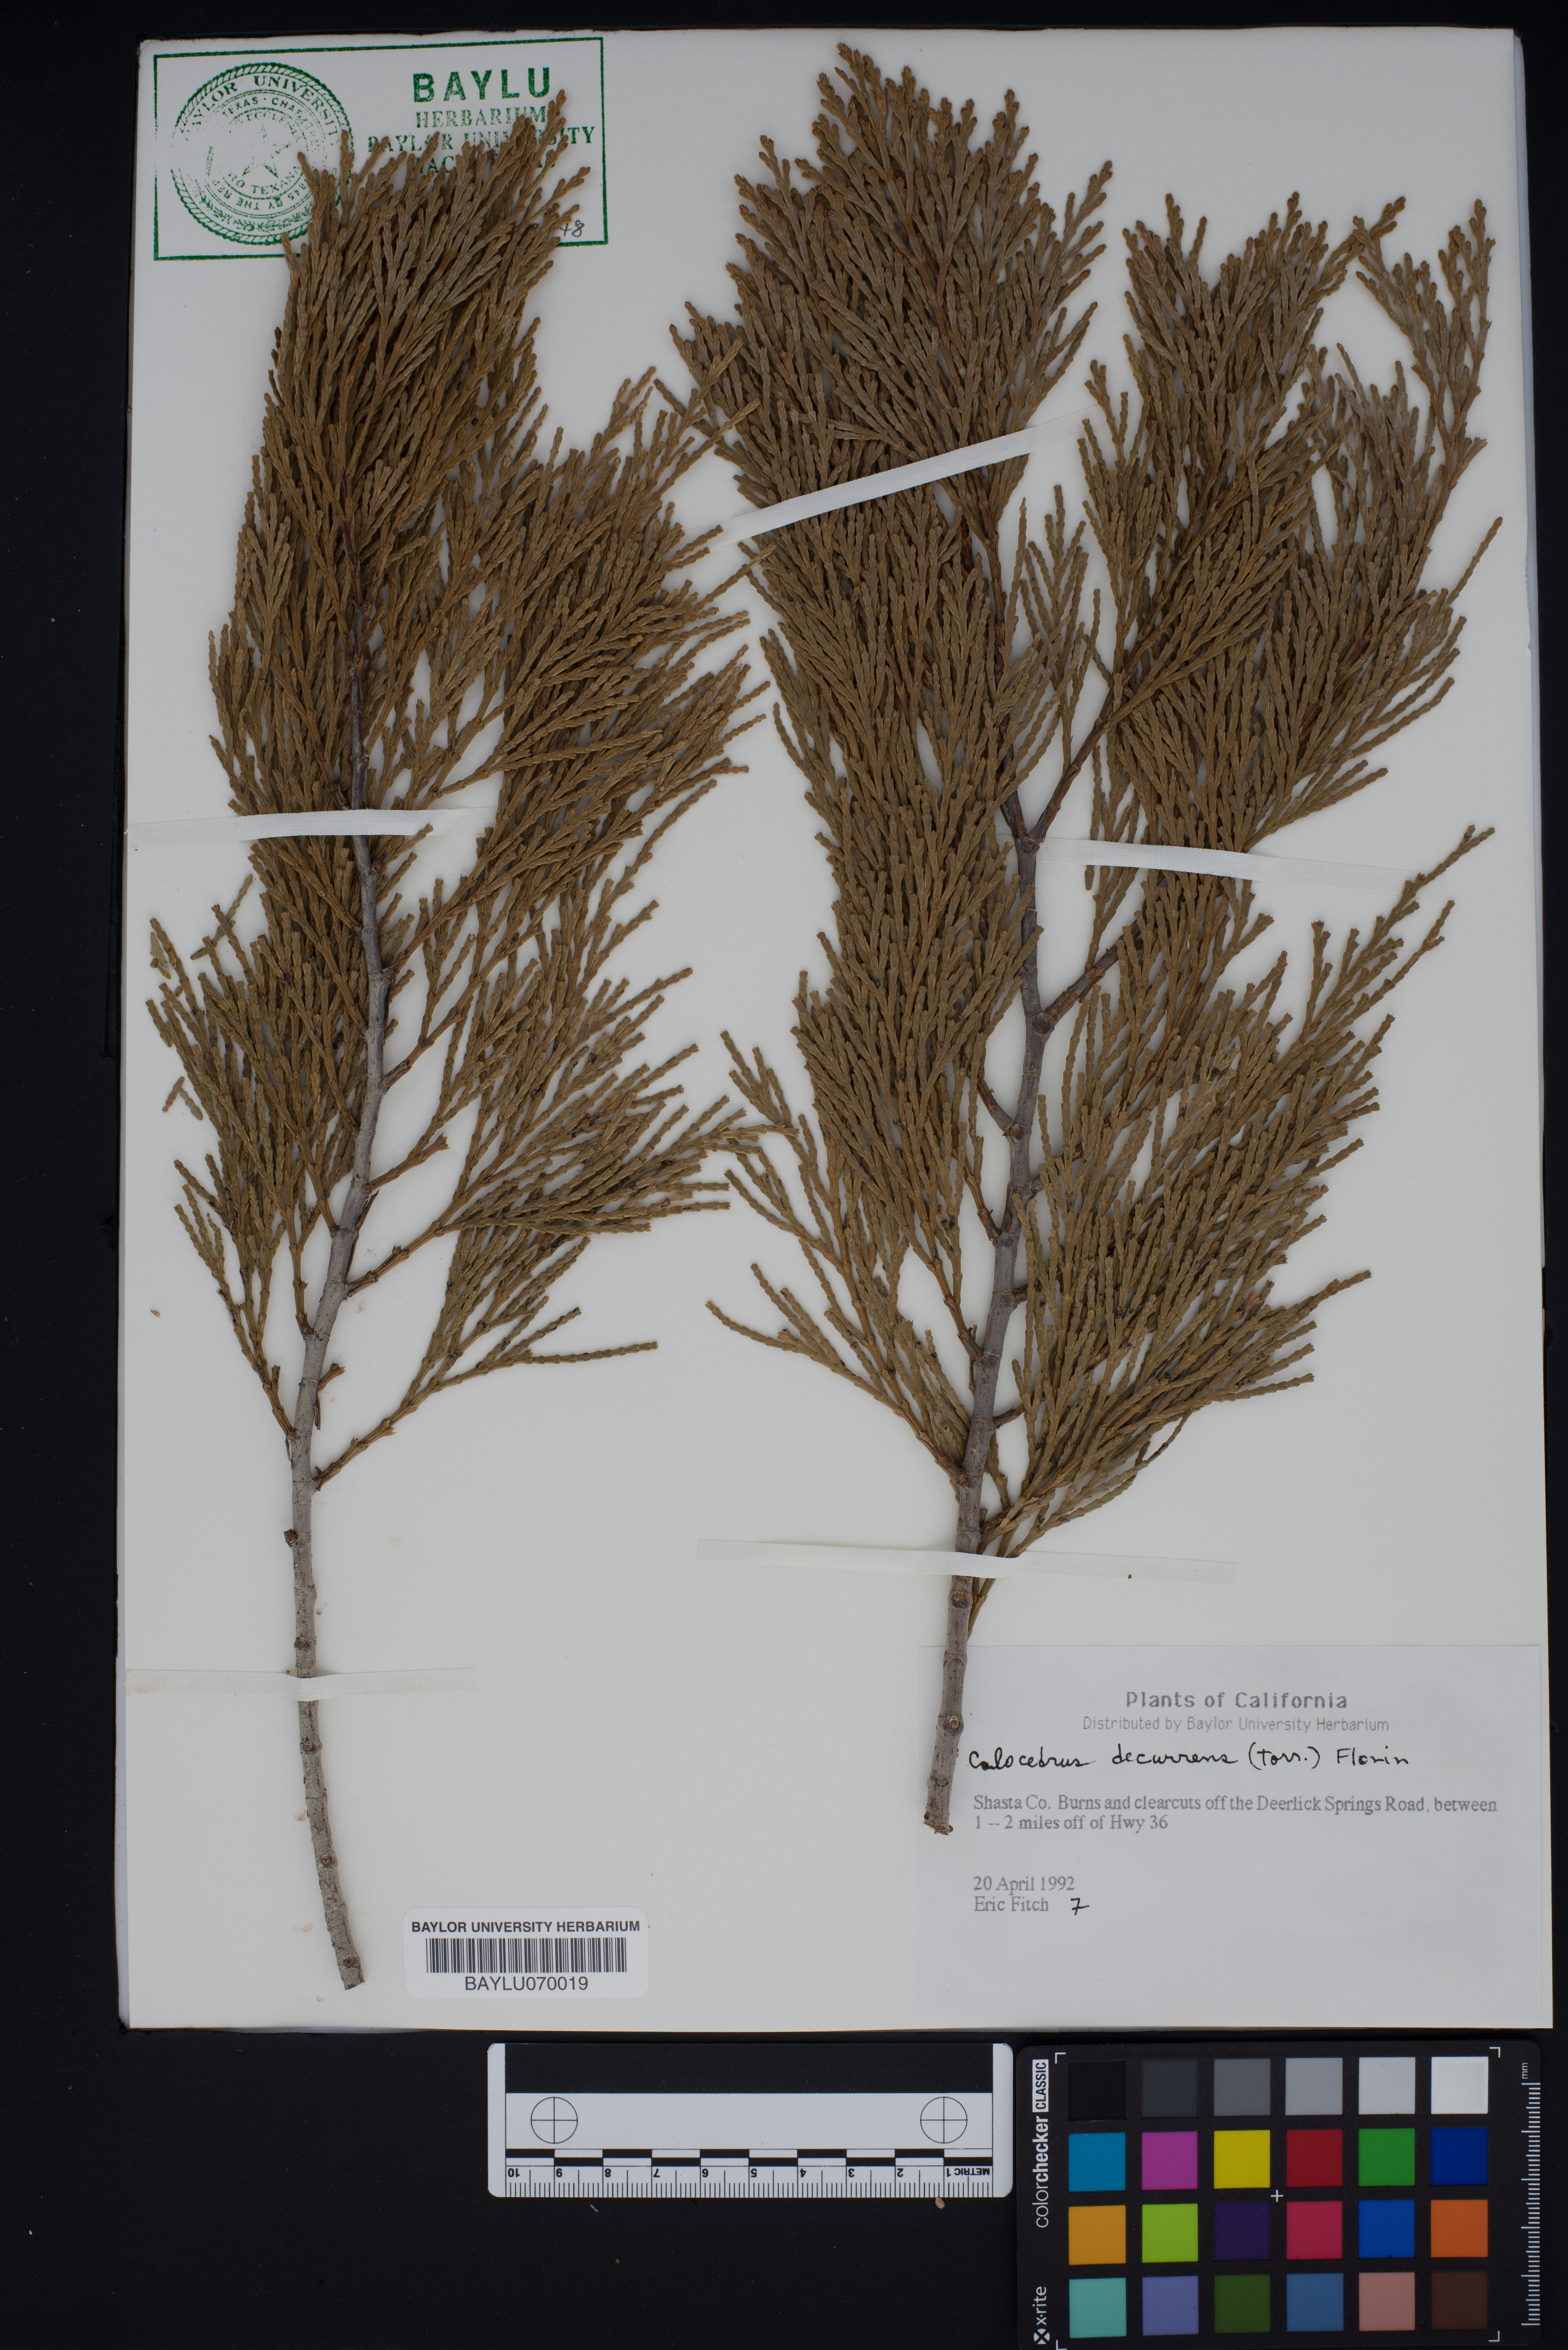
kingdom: Plantae
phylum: Tracheophyta
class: Pinopsida
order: Pinales
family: Cupressaceae
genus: Calocedrus
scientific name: Calocedrus decurrens
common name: Californian incense-cedar
